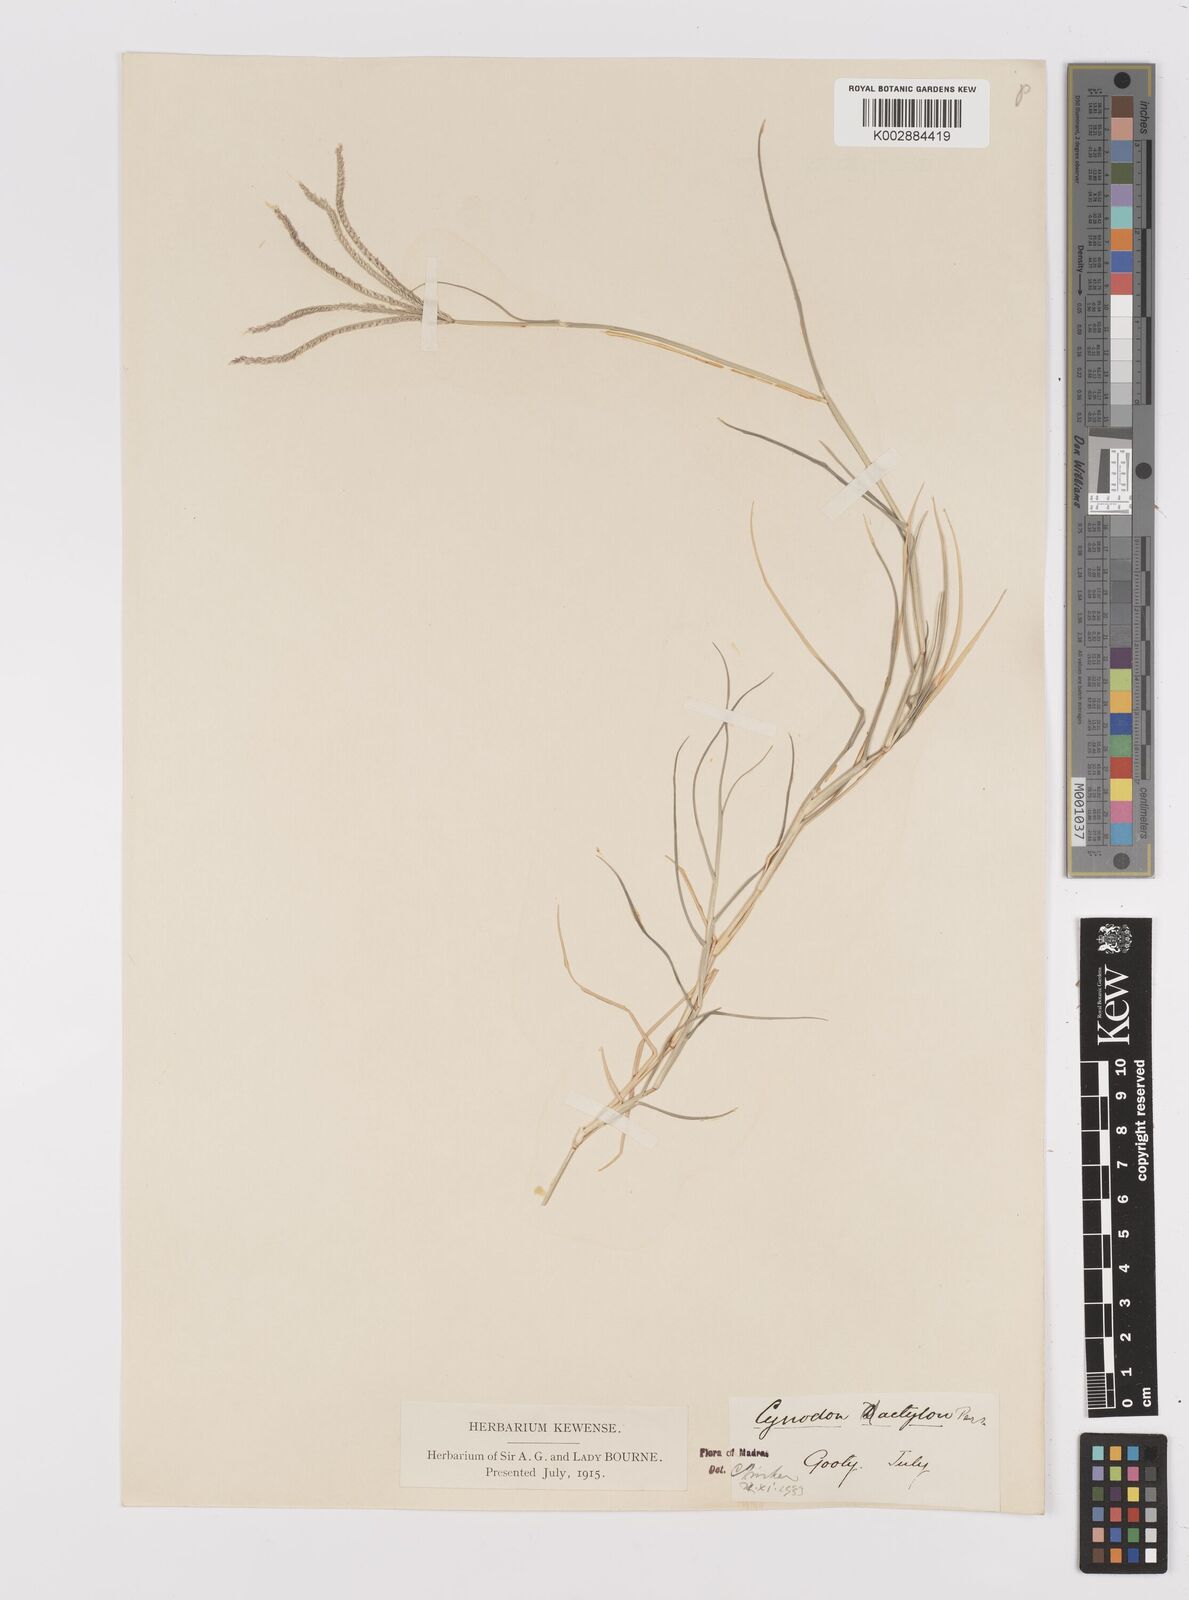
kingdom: Plantae
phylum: Tracheophyta
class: Liliopsida
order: Poales
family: Poaceae
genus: Cynodon
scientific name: Cynodon dactylon
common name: Bermuda grass
